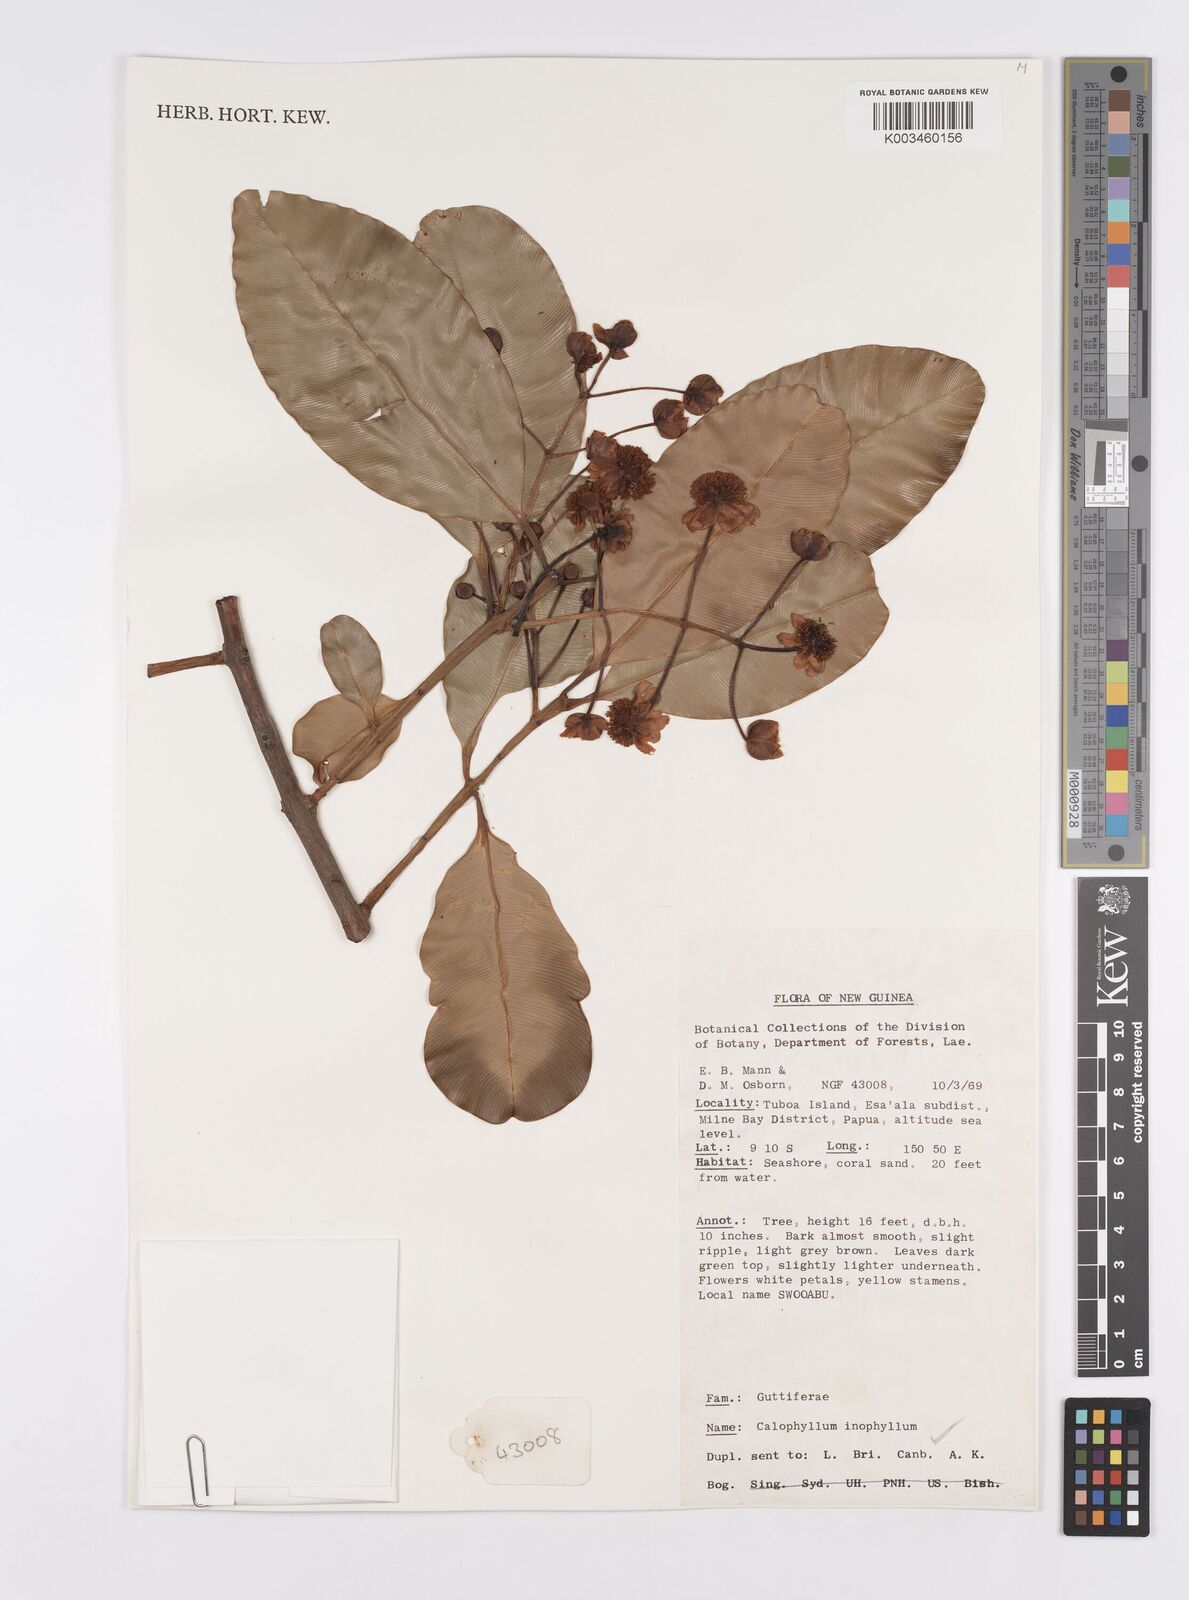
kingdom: Plantae
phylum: Tracheophyta
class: Magnoliopsida
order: Malpighiales
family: Calophyllaceae
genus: Calophyllum
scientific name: Calophyllum inophyllum
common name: Alexandrian laurel
